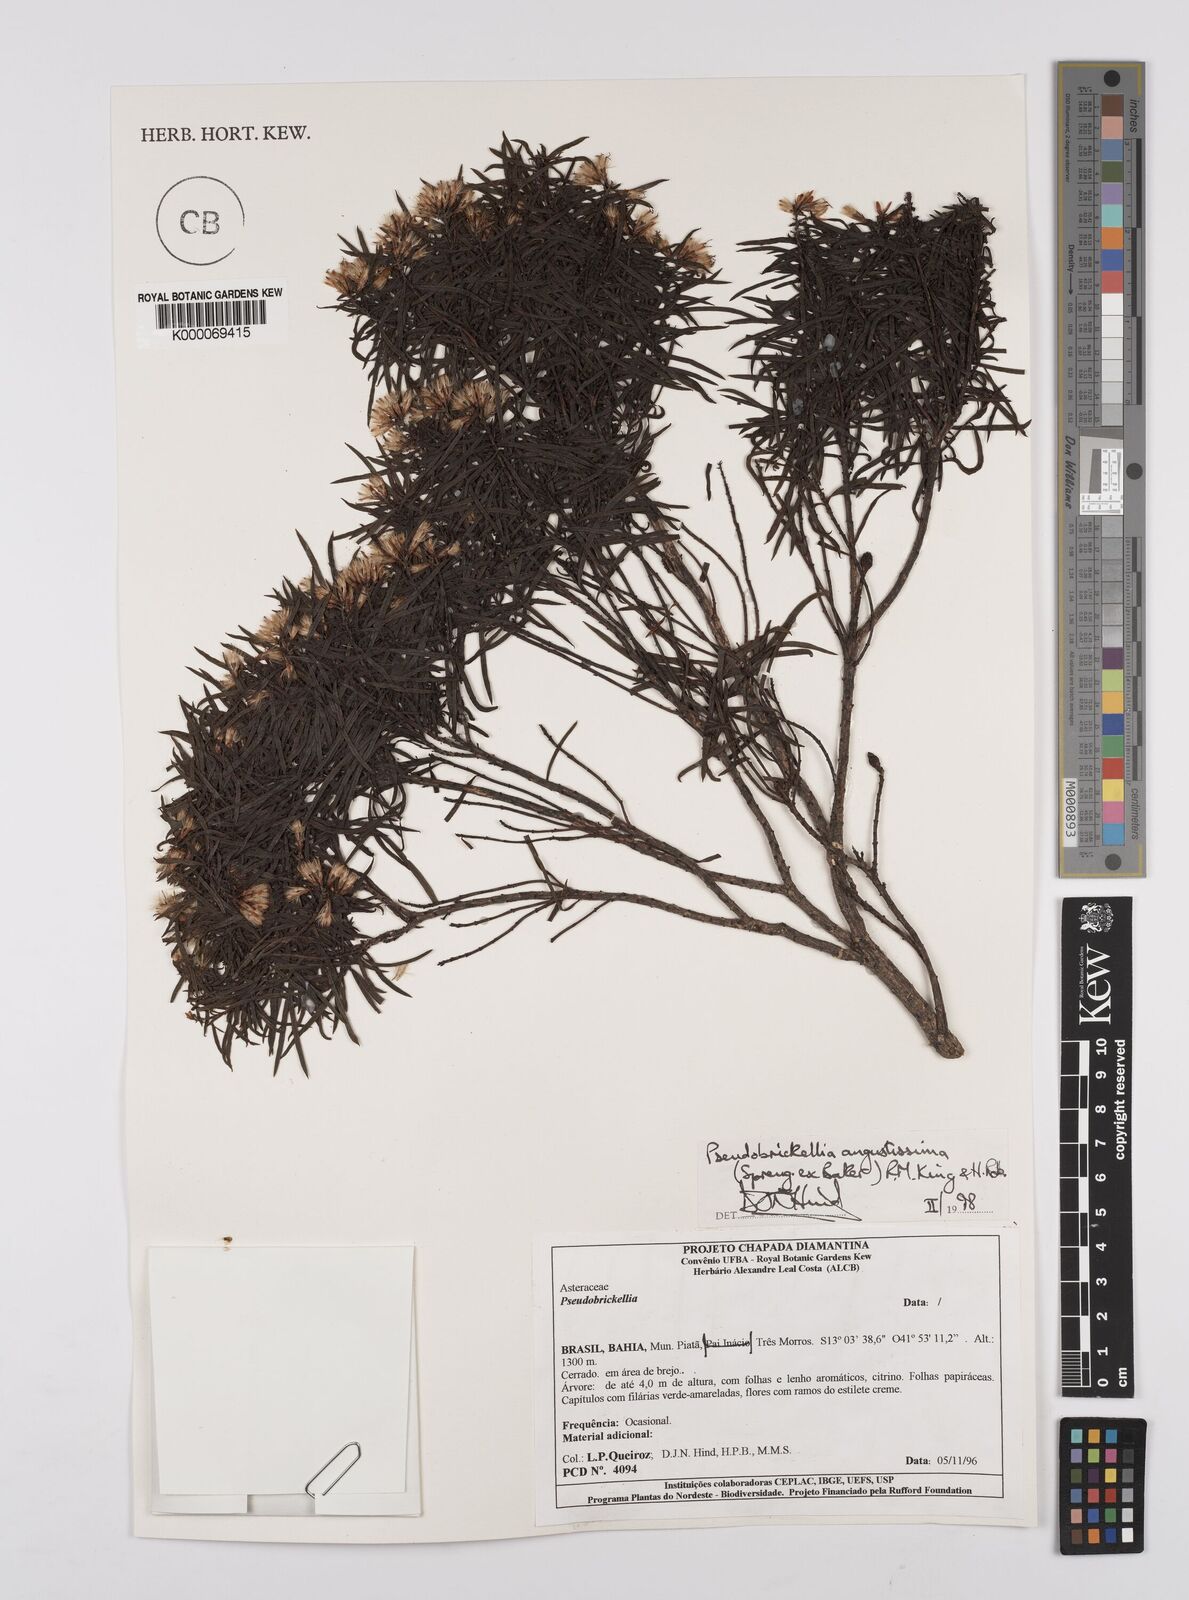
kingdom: Plantae
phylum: Tracheophyta
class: Magnoliopsida
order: Asterales
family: Asteraceae
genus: Pseudobrickellia
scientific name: Pseudobrickellia angustissima
